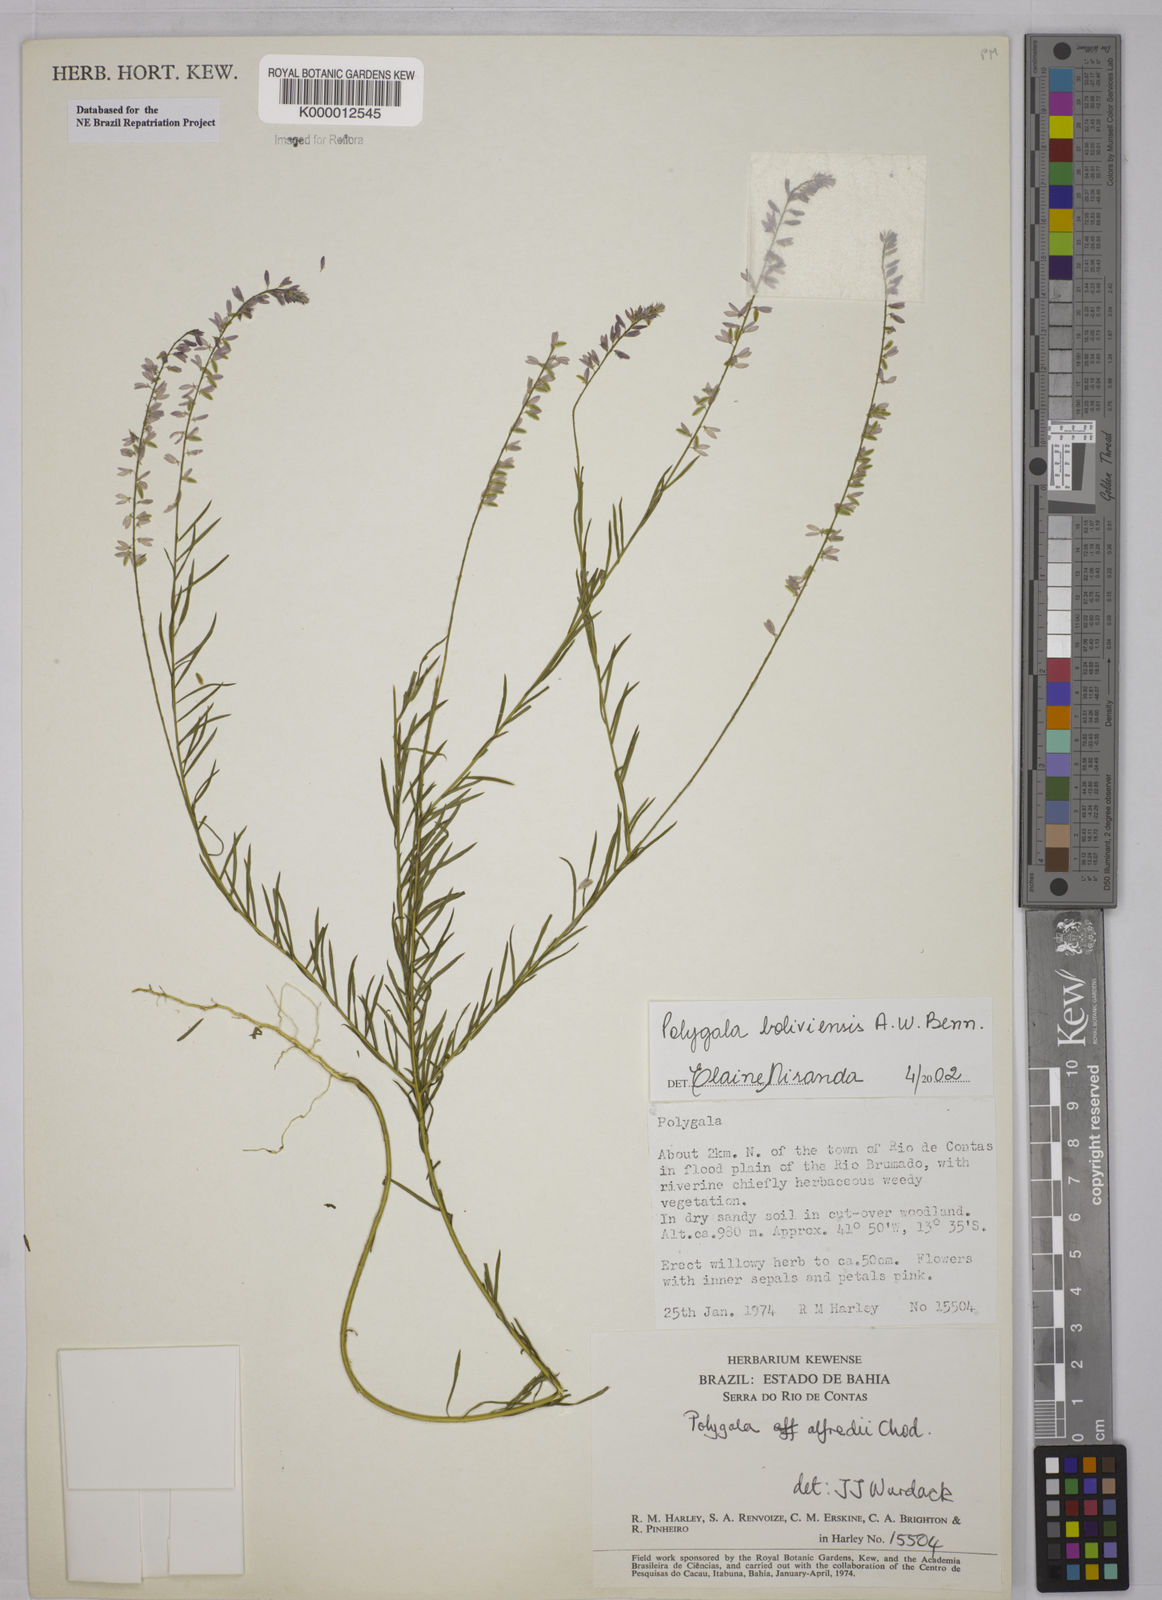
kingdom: Plantae
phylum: Tracheophyta
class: Magnoliopsida
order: Fabales
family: Polygalaceae
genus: Polygala
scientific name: Polygala boliviensis
